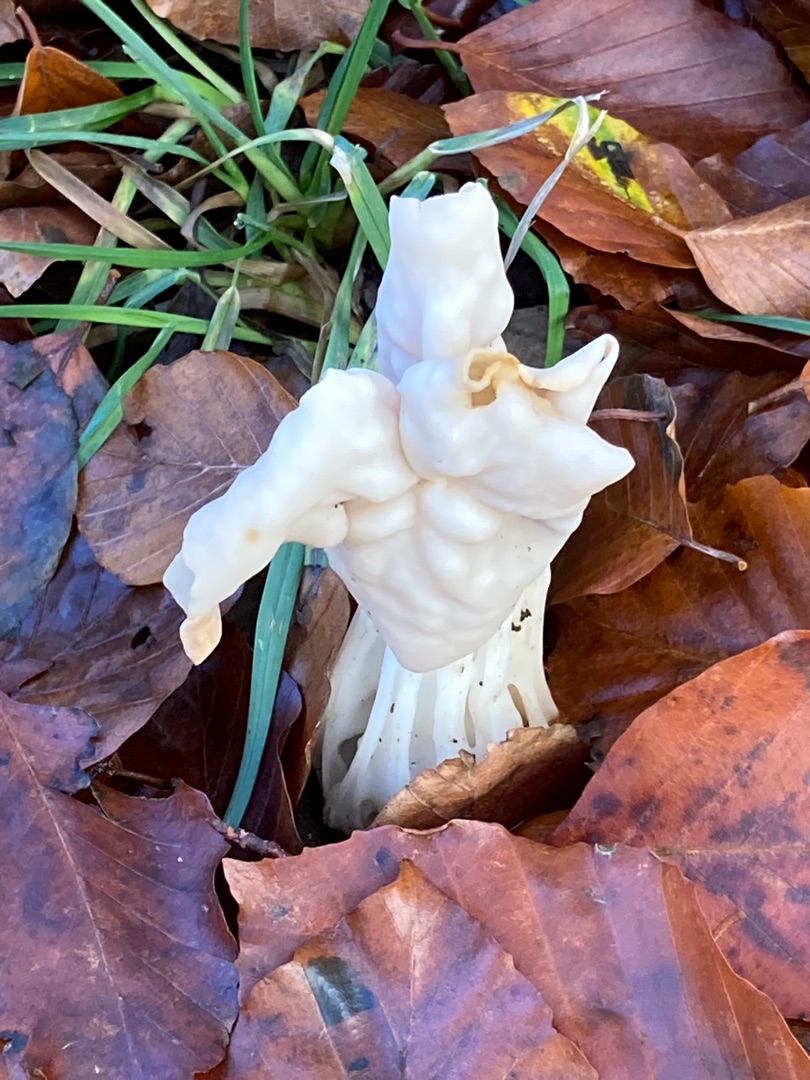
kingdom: Fungi
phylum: Ascomycota
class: Pezizomycetes
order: Pezizales
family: Helvellaceae
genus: Helvella
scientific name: Helvella crispa
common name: Kruset foldhat
